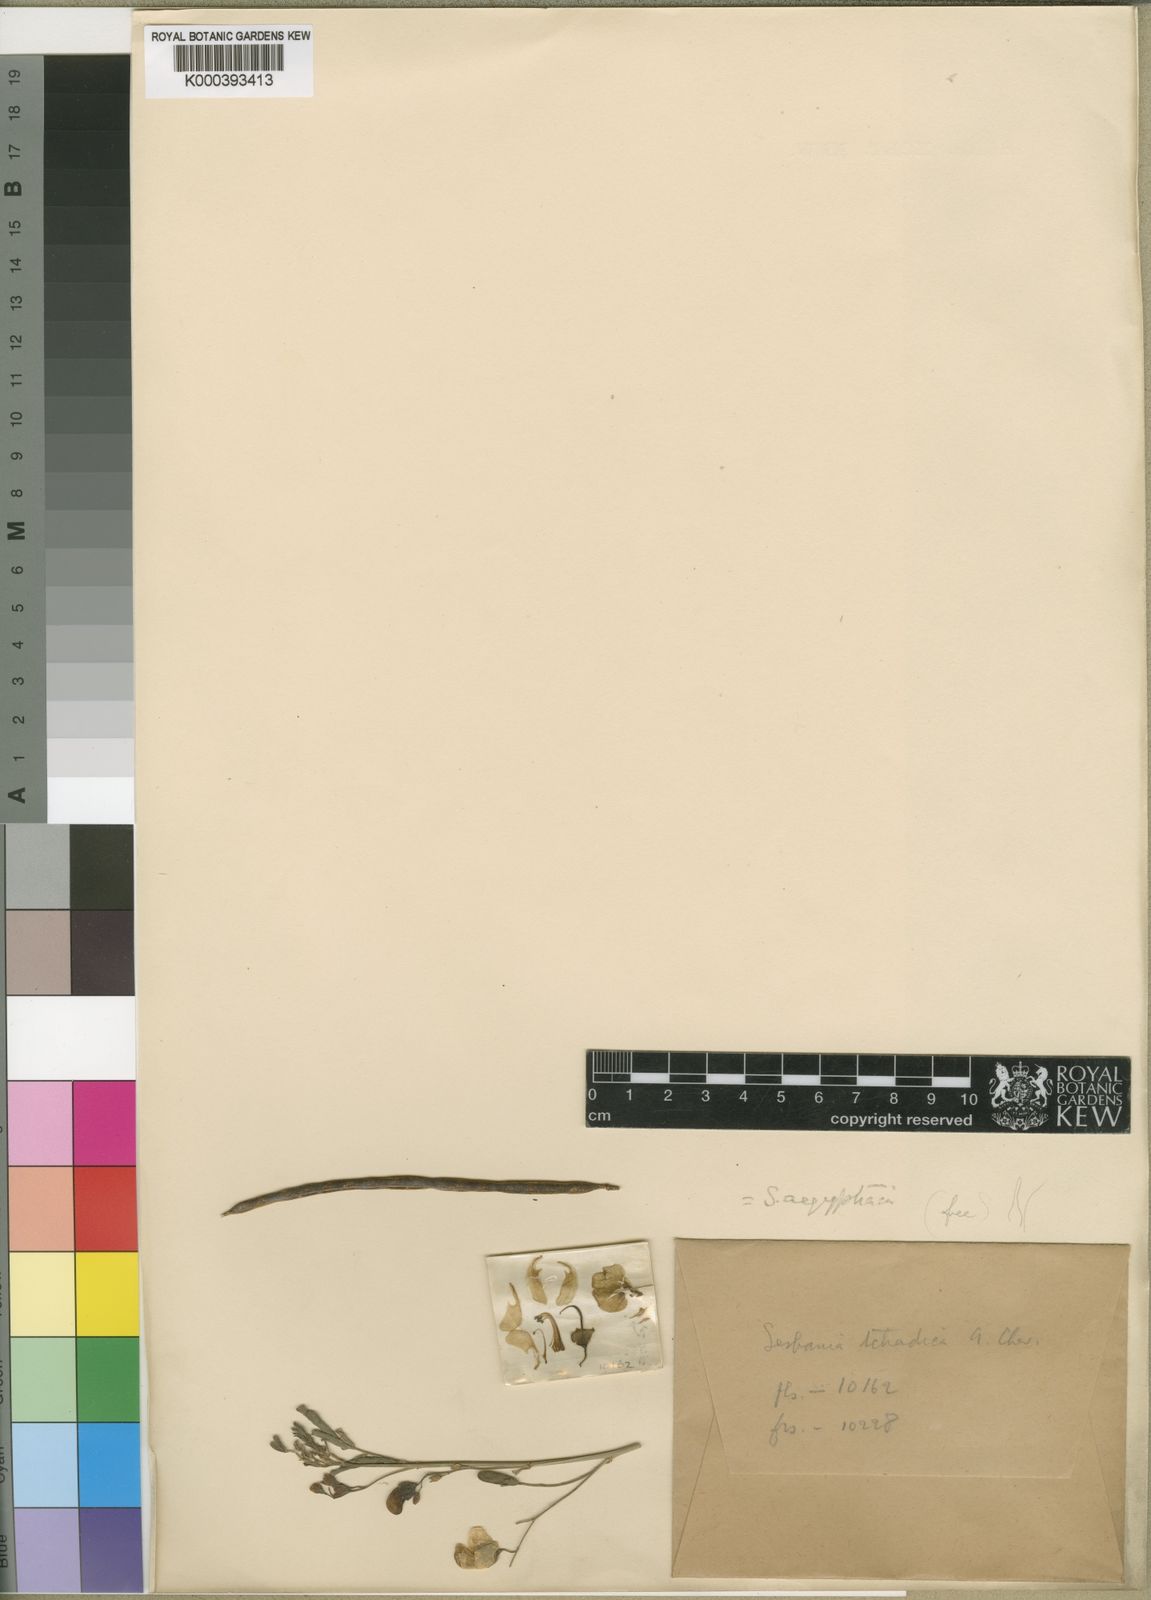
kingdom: Plantae
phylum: Tracheophyta
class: Magnoliopsida
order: Fabales
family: Fabaceae
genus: Sesbania
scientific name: Sesbania sesban
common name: Egyptian sesban
